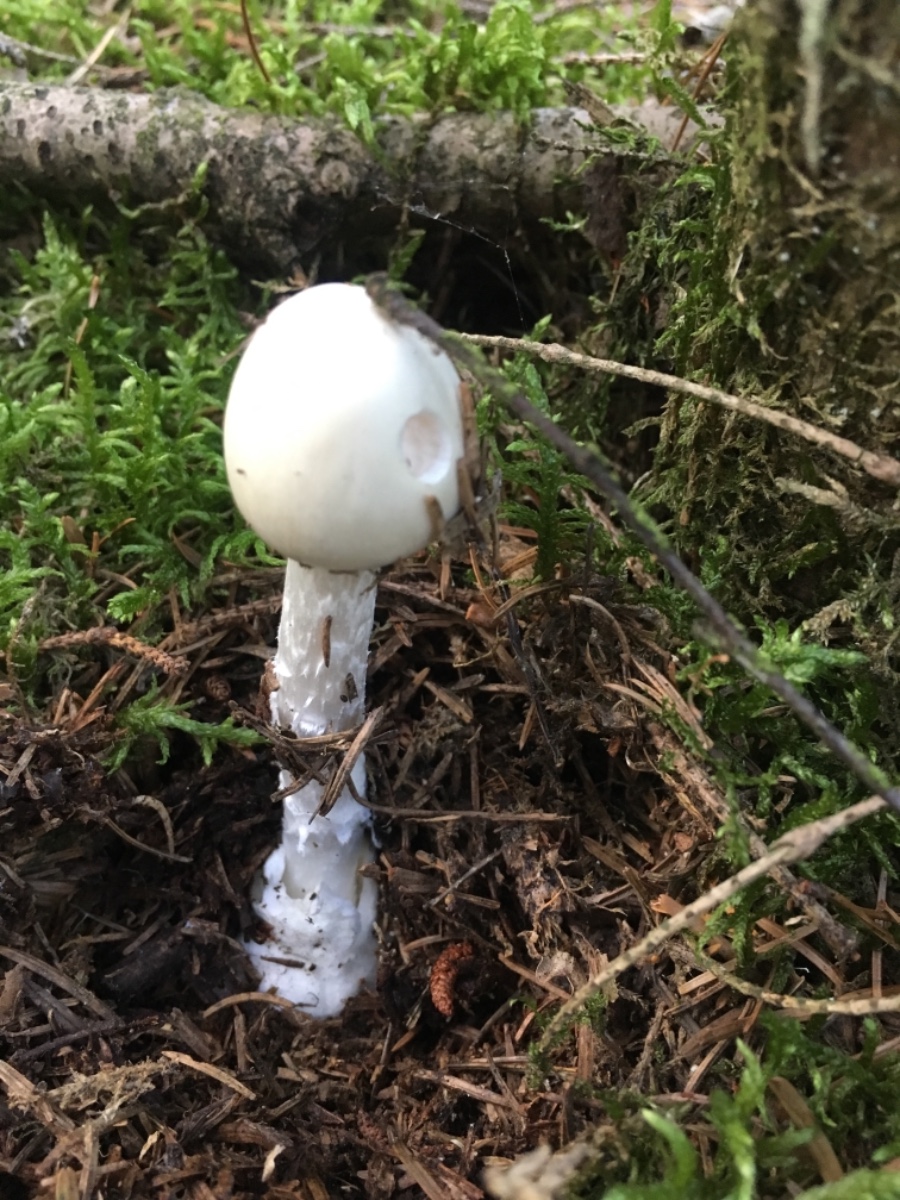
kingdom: Fungi
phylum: Basidiomycota
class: Agaricomycetes
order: Agaricales
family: Amanitaceae
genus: Amanita
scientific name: Amanita virosa
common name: snehvid fluesvamp
